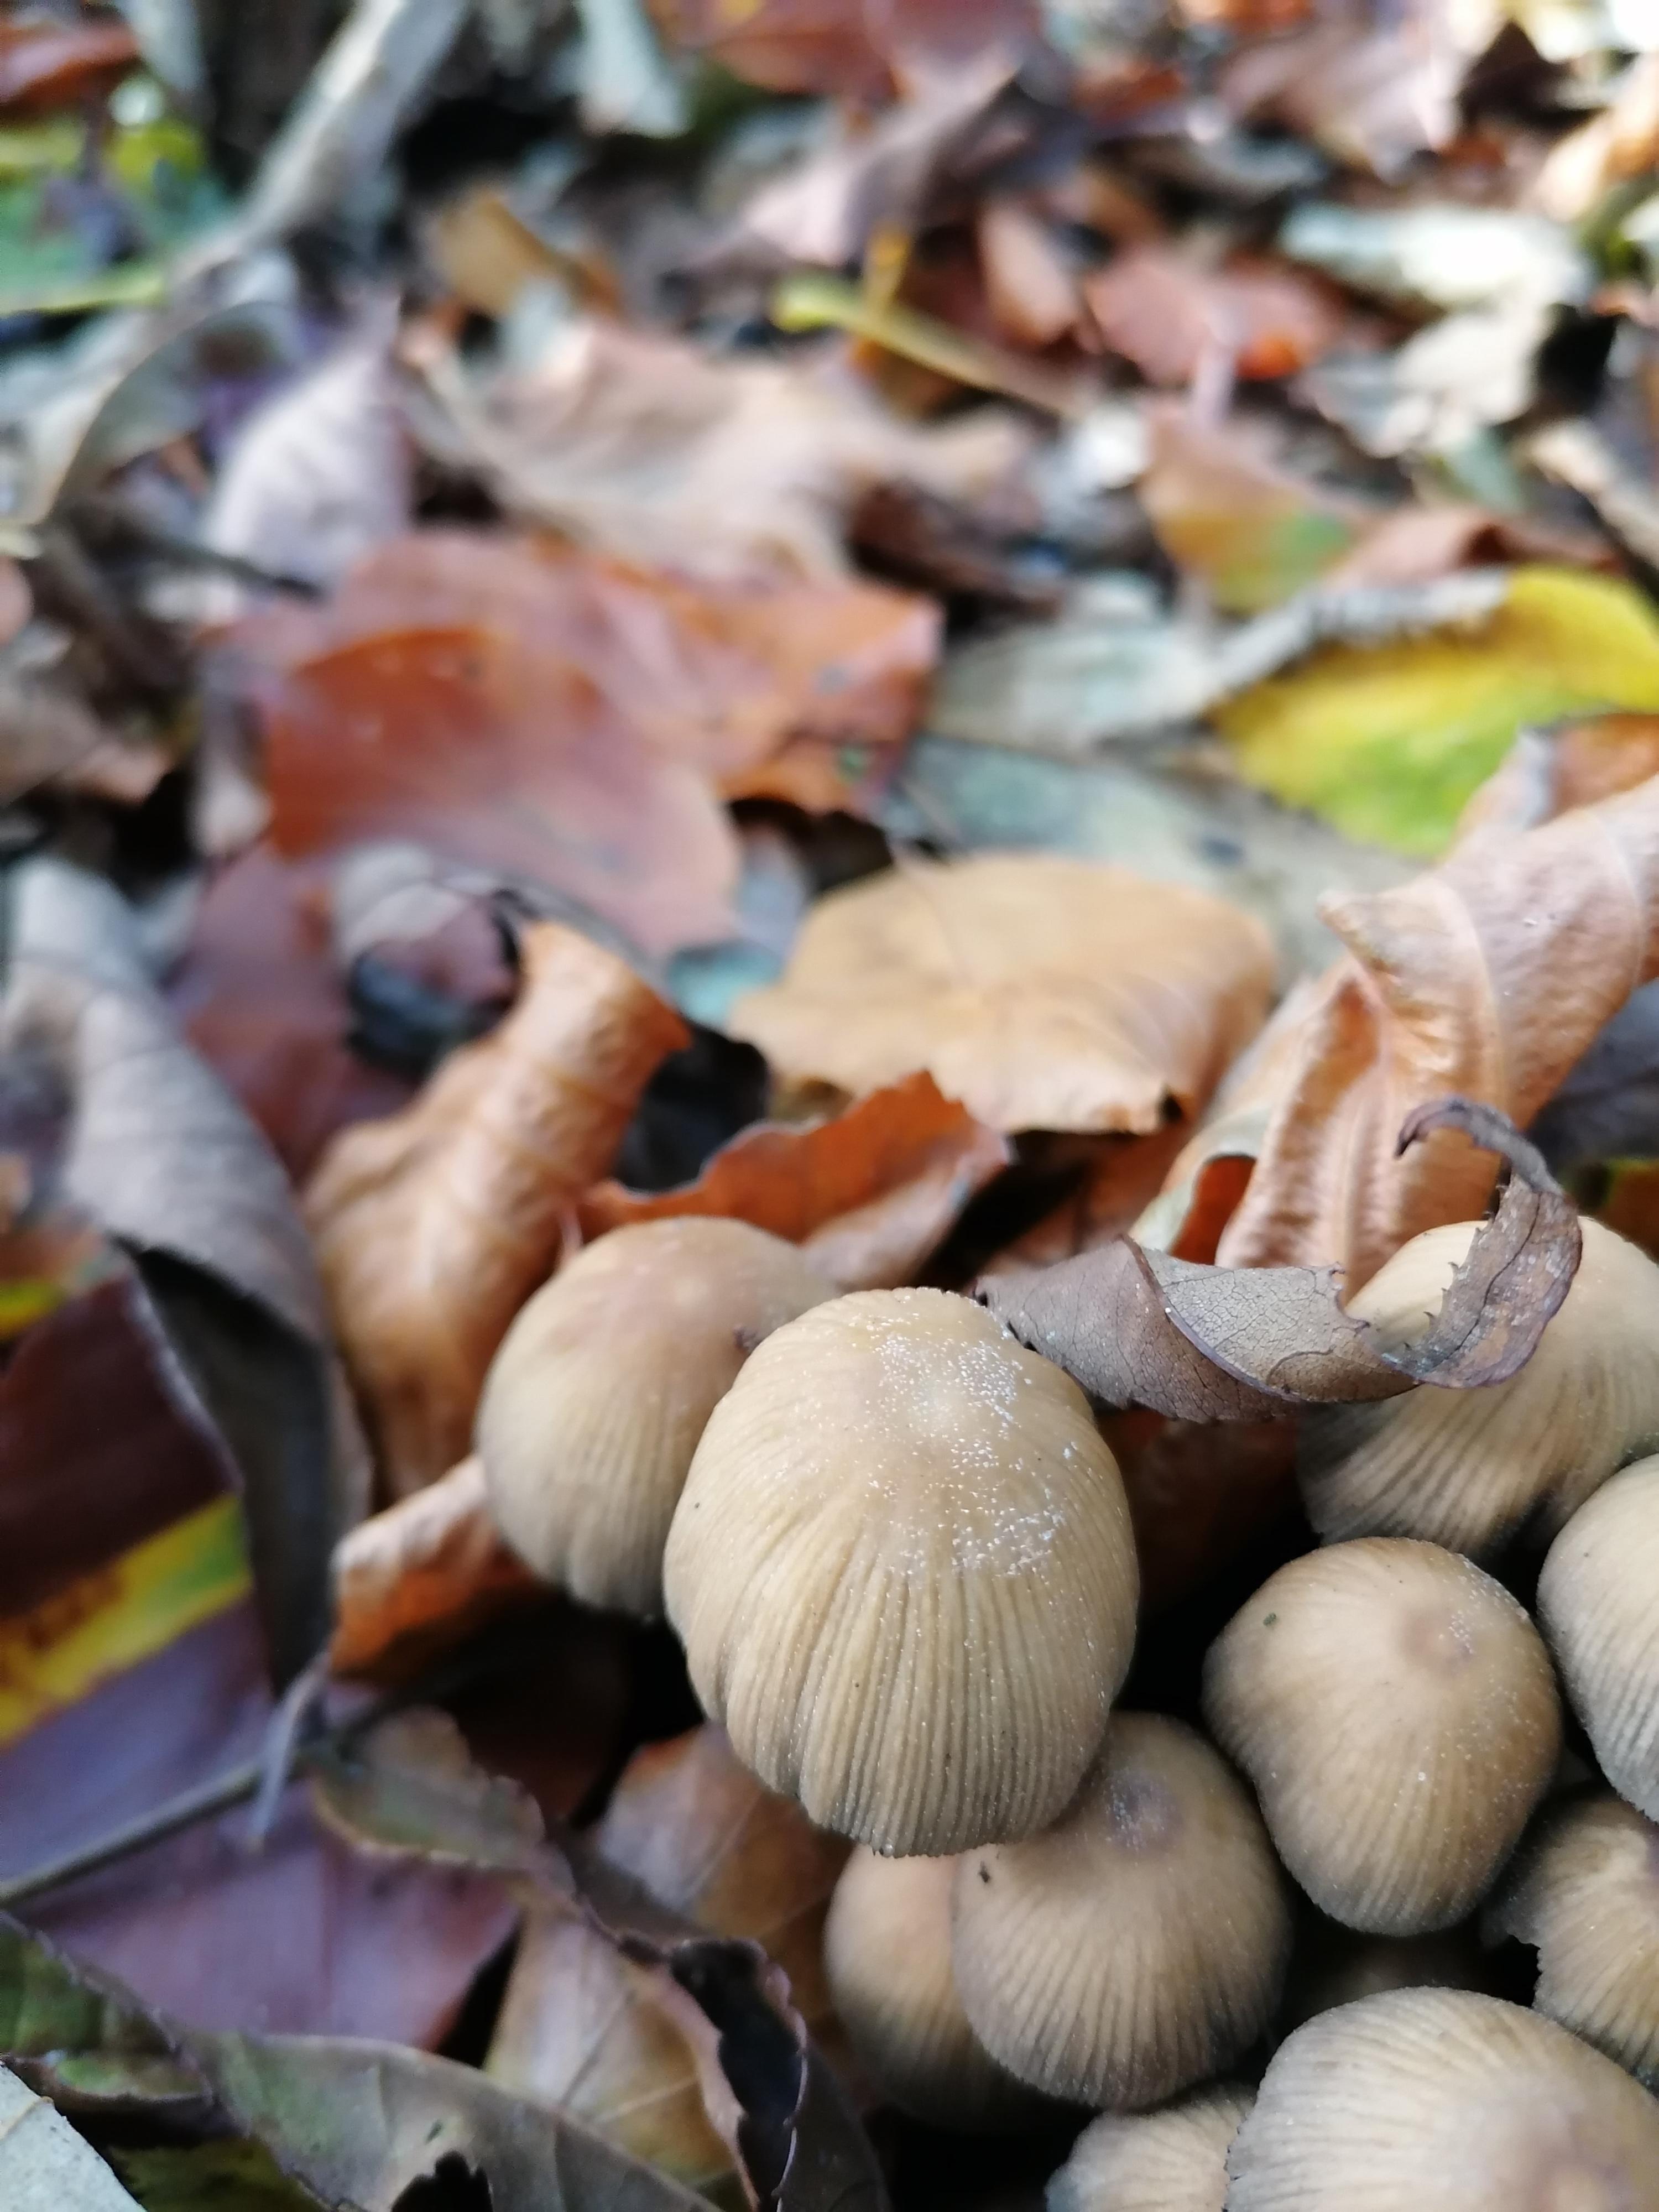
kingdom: Fungi
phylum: Basidiomycota
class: Agaricomycetes
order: Agaricales
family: Psathyrellaceae
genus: Coprinellus
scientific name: Coprinellus micaceus
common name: glimmer-blækhat
